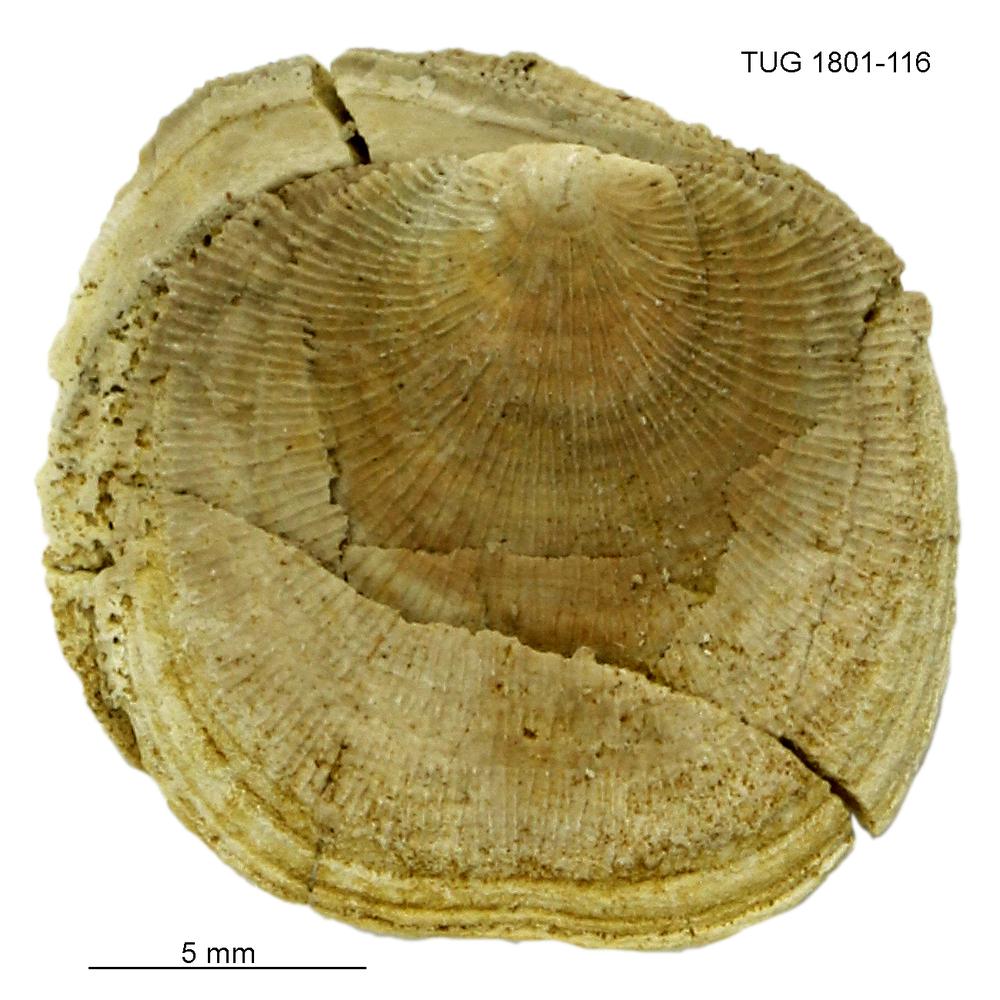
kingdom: Animalia
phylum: Brachiopoda
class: Craniata
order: Craniida
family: Craniidae
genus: Philhedra
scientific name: Philhedra
